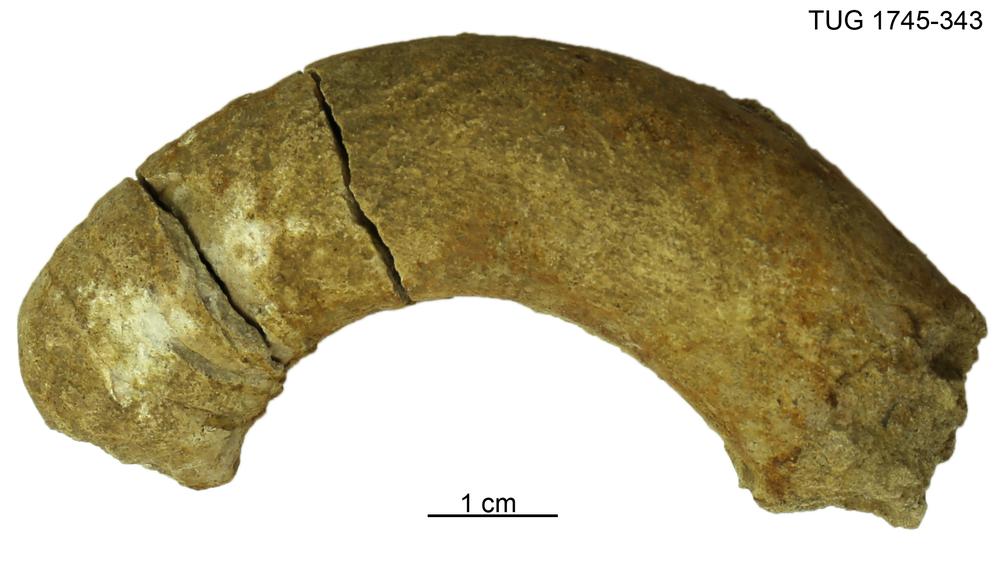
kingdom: Animalia
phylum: Mollusca
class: Cephalopoda
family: Tarphyceratidae
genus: Rectanguloceras
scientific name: Rectanguloceras
